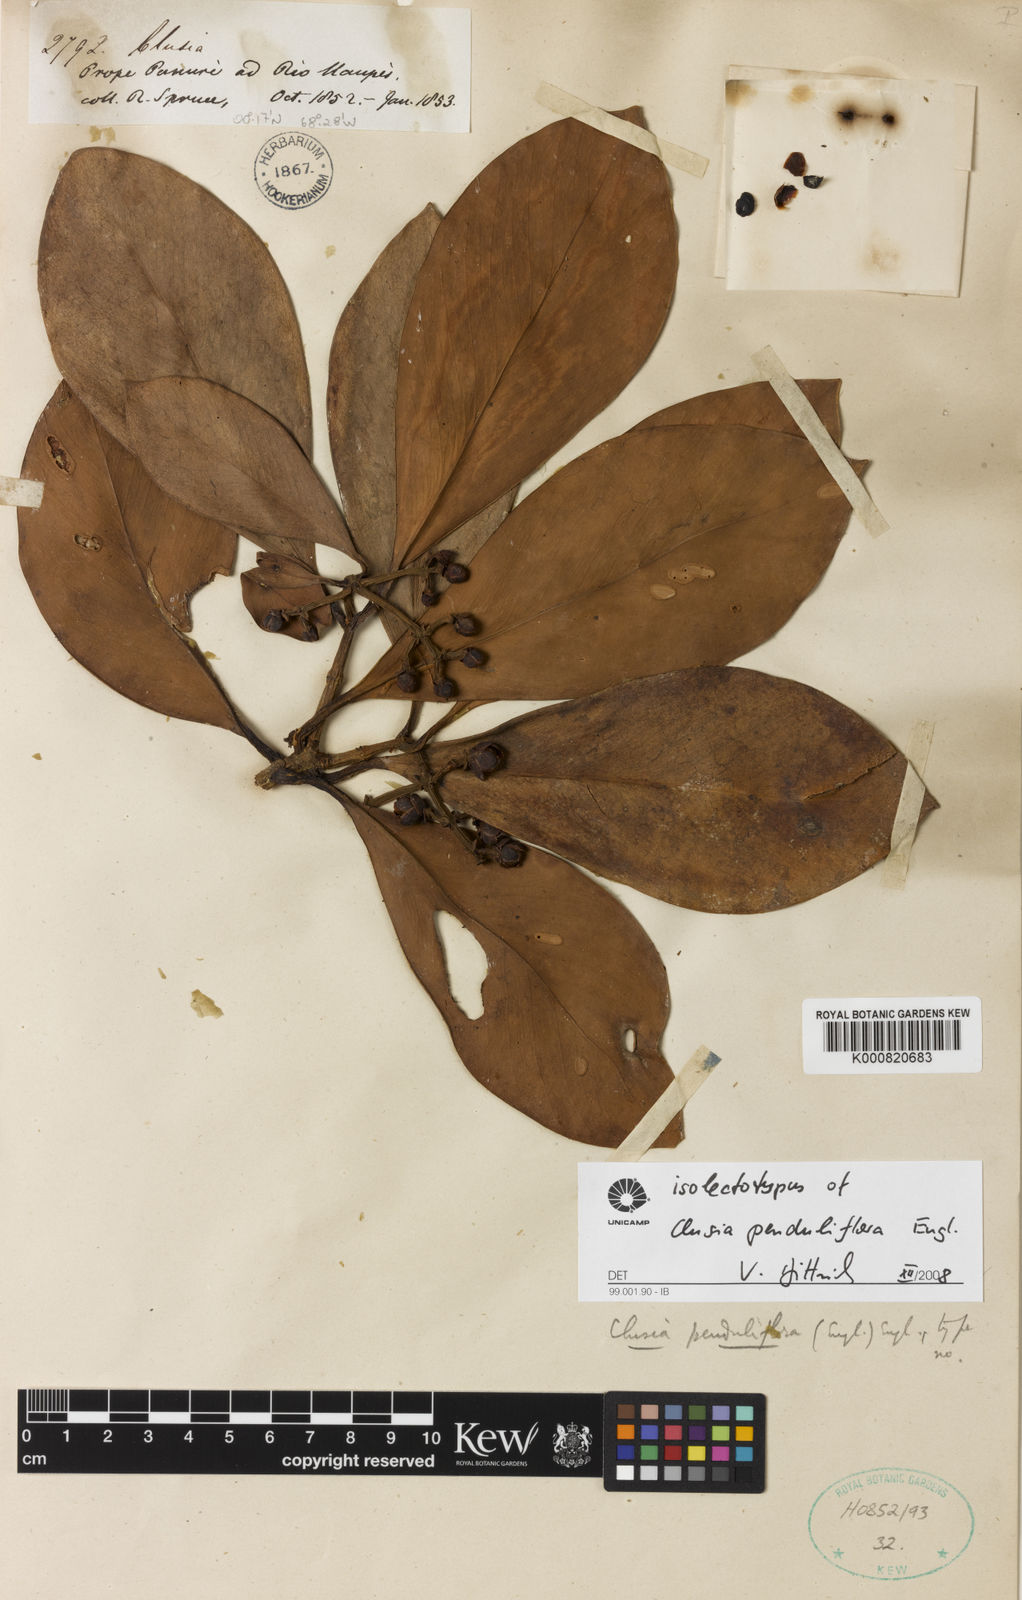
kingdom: Plantae
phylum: Tracheophyta
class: Magnoliopsida
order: Malpighiales
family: Clusiaceae
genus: Clusia
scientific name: Clusia penduliflora
